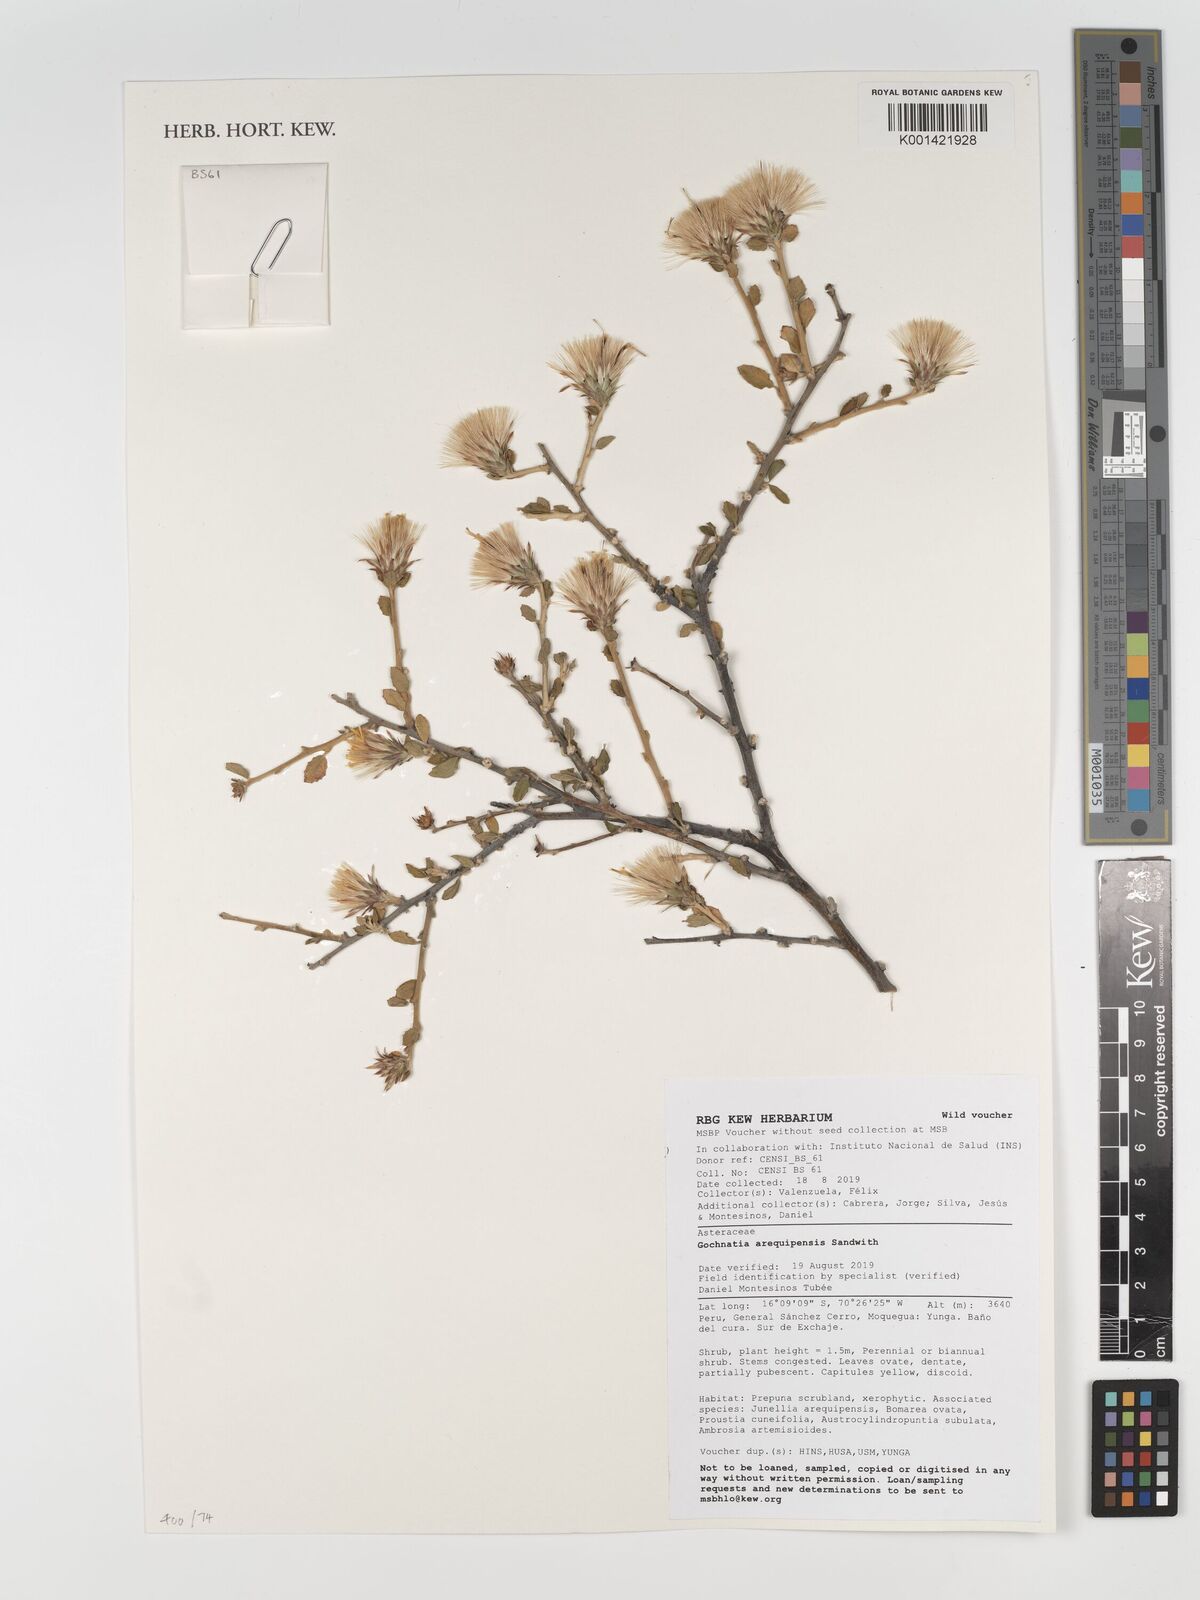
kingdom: Plantae
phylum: Tracheophyta
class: Magnoliopsida
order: Asterales
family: Asteraceae
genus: Gochnatia
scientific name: Gochnatia arequipensis
